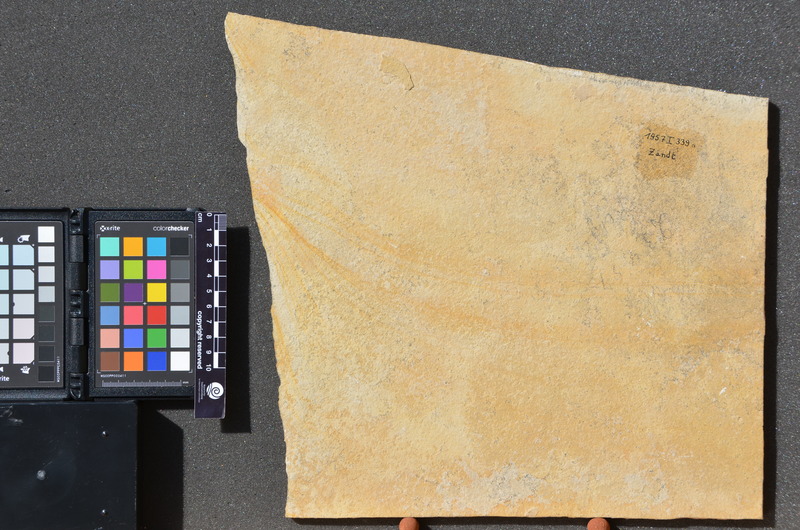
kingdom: Animalia
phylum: Chordata
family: Aspidorhynchidae
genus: Belonostomus
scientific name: Belonostomus muensteri
